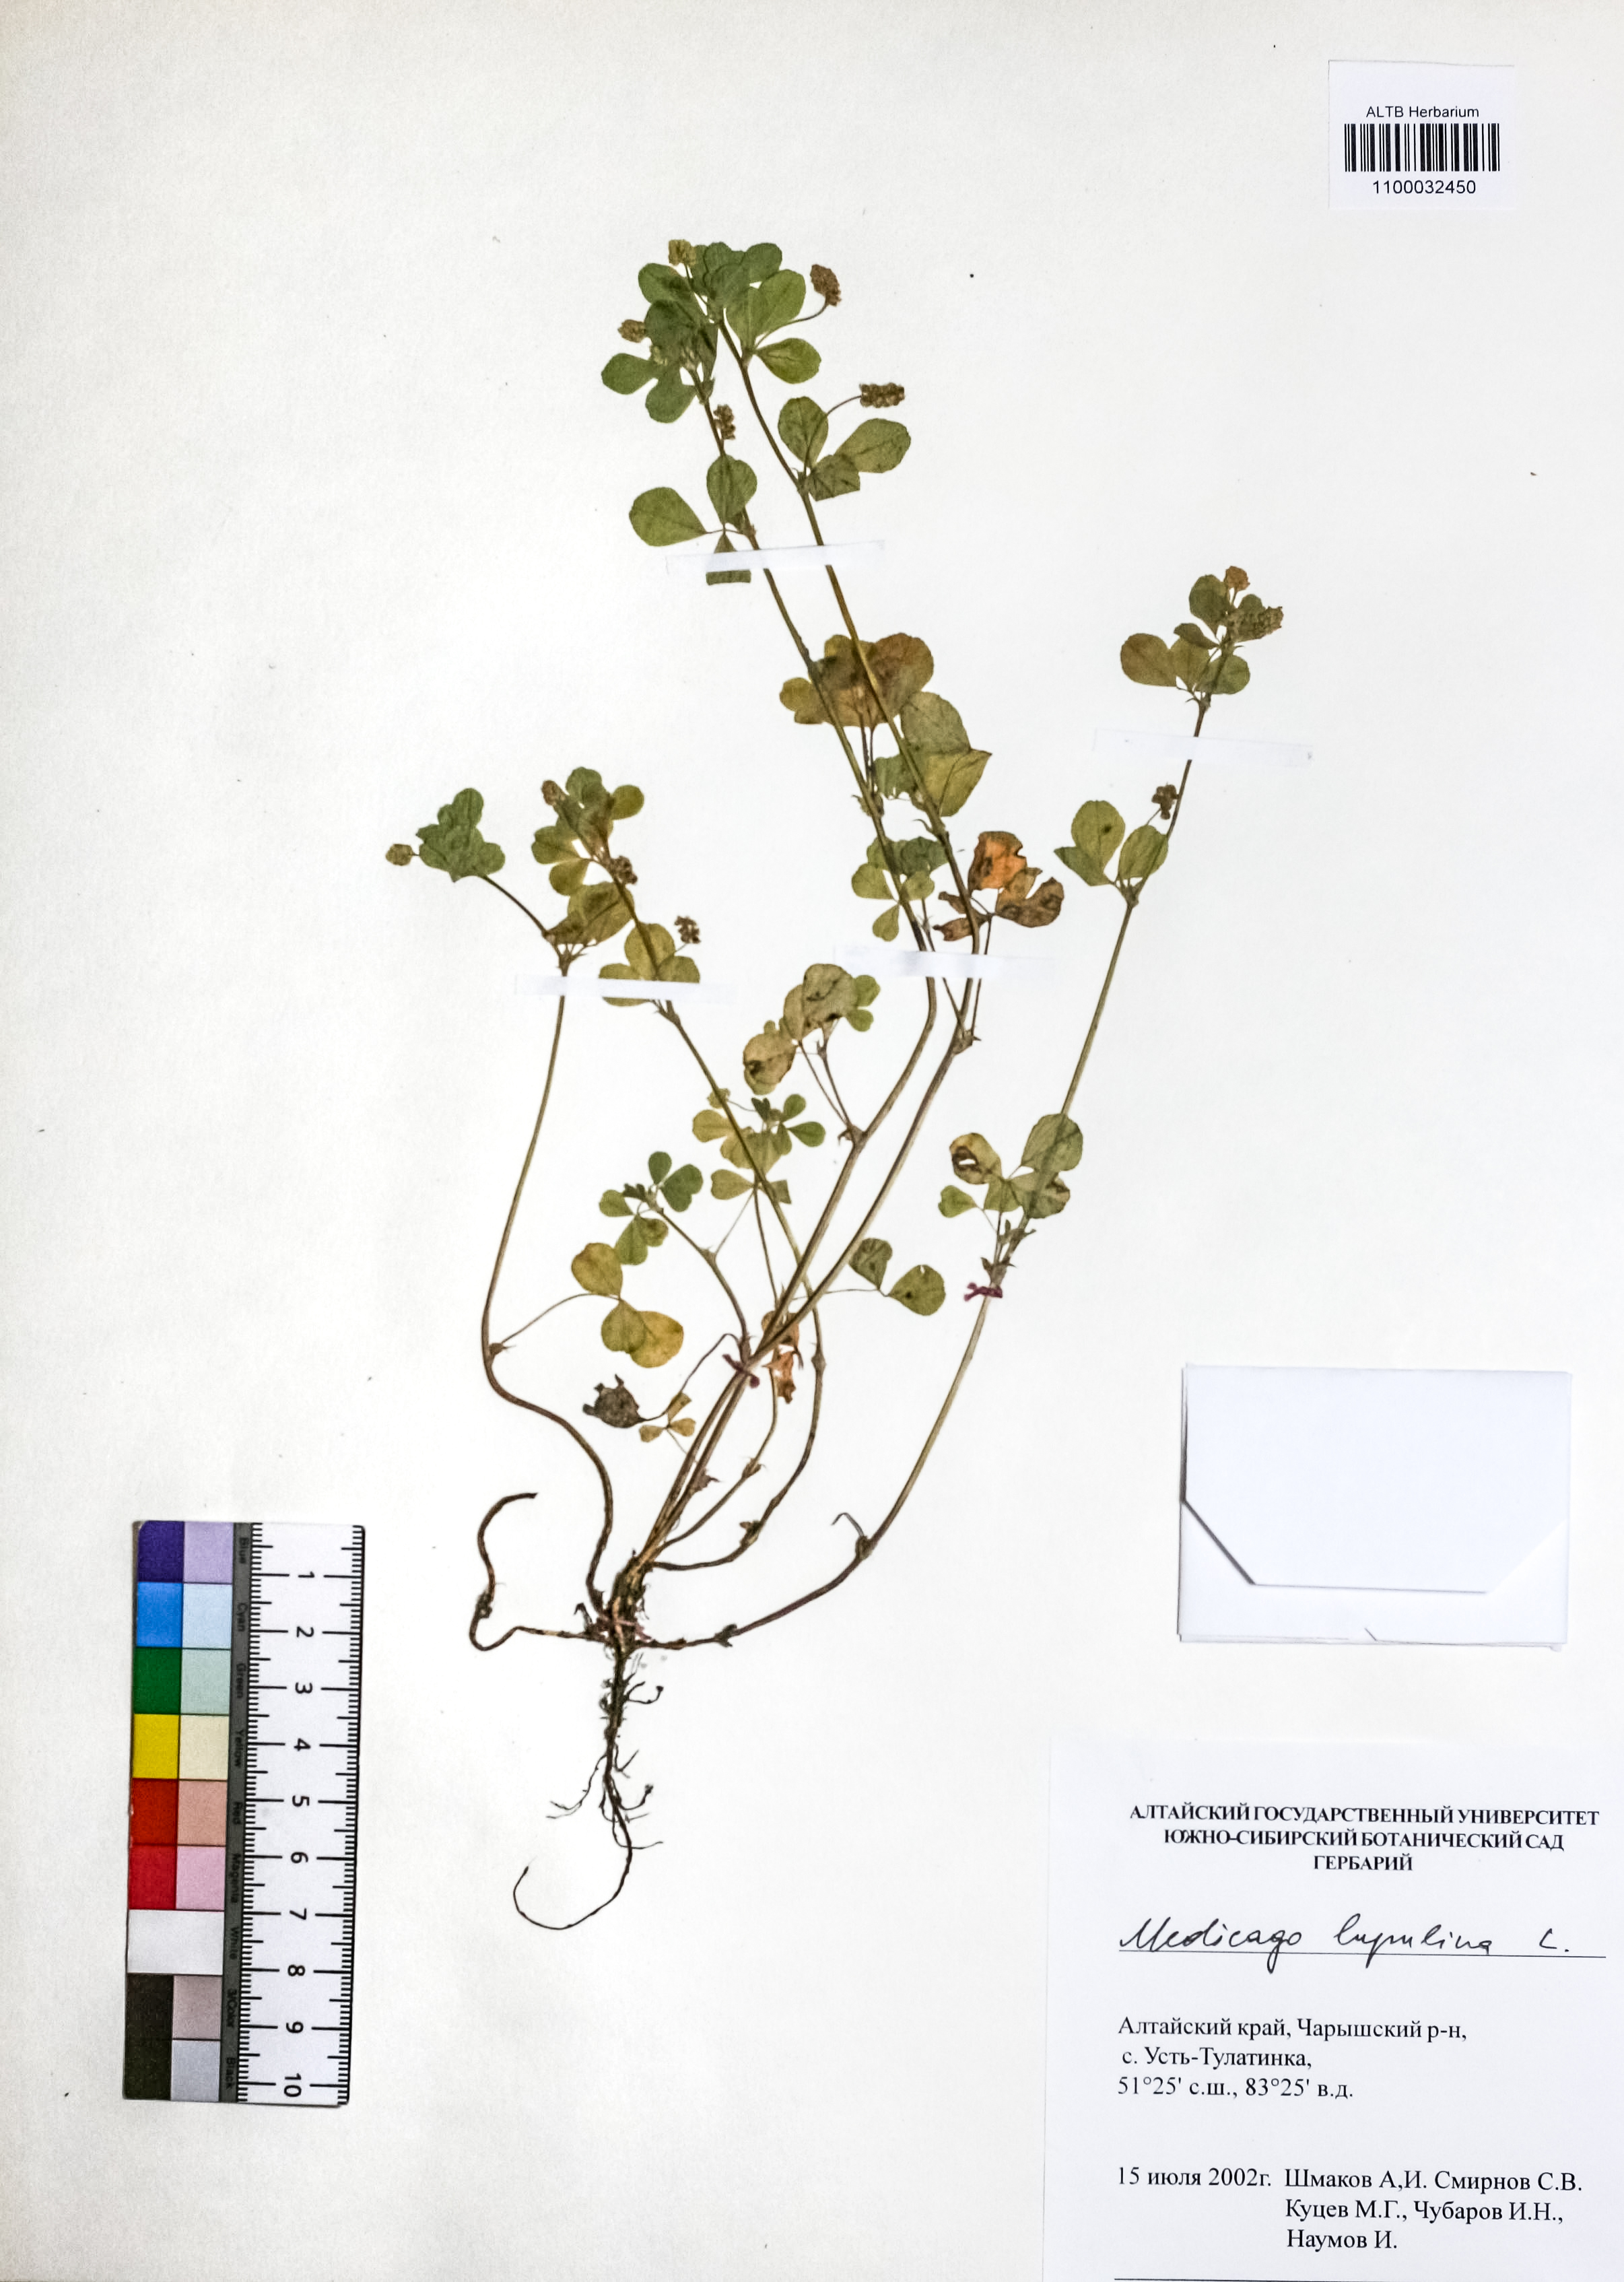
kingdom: Plantae
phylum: Tracheophyta
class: Magnoliopsida
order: Fabales
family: Fabaceae
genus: Medicago
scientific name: Medicago lupulina
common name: Black medick
